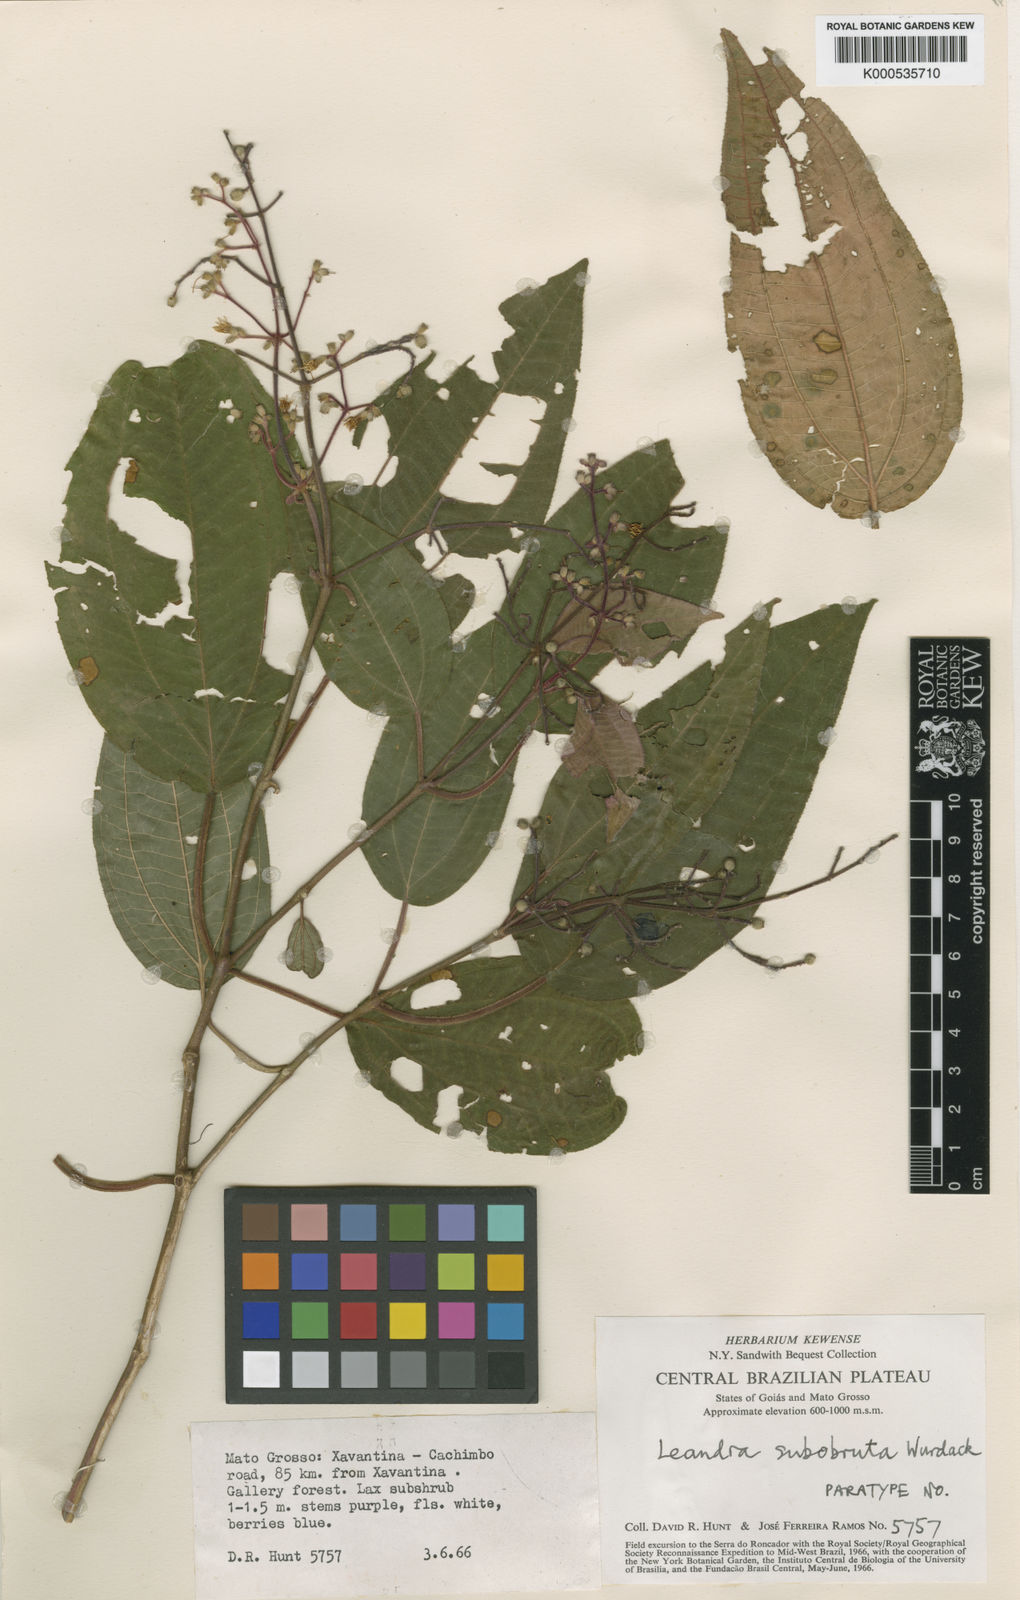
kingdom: Plantae
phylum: Tracheophyta
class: Magnoliopsida
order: Myrtales
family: Melastomataceae
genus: Miconia
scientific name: Miconia subobruta
